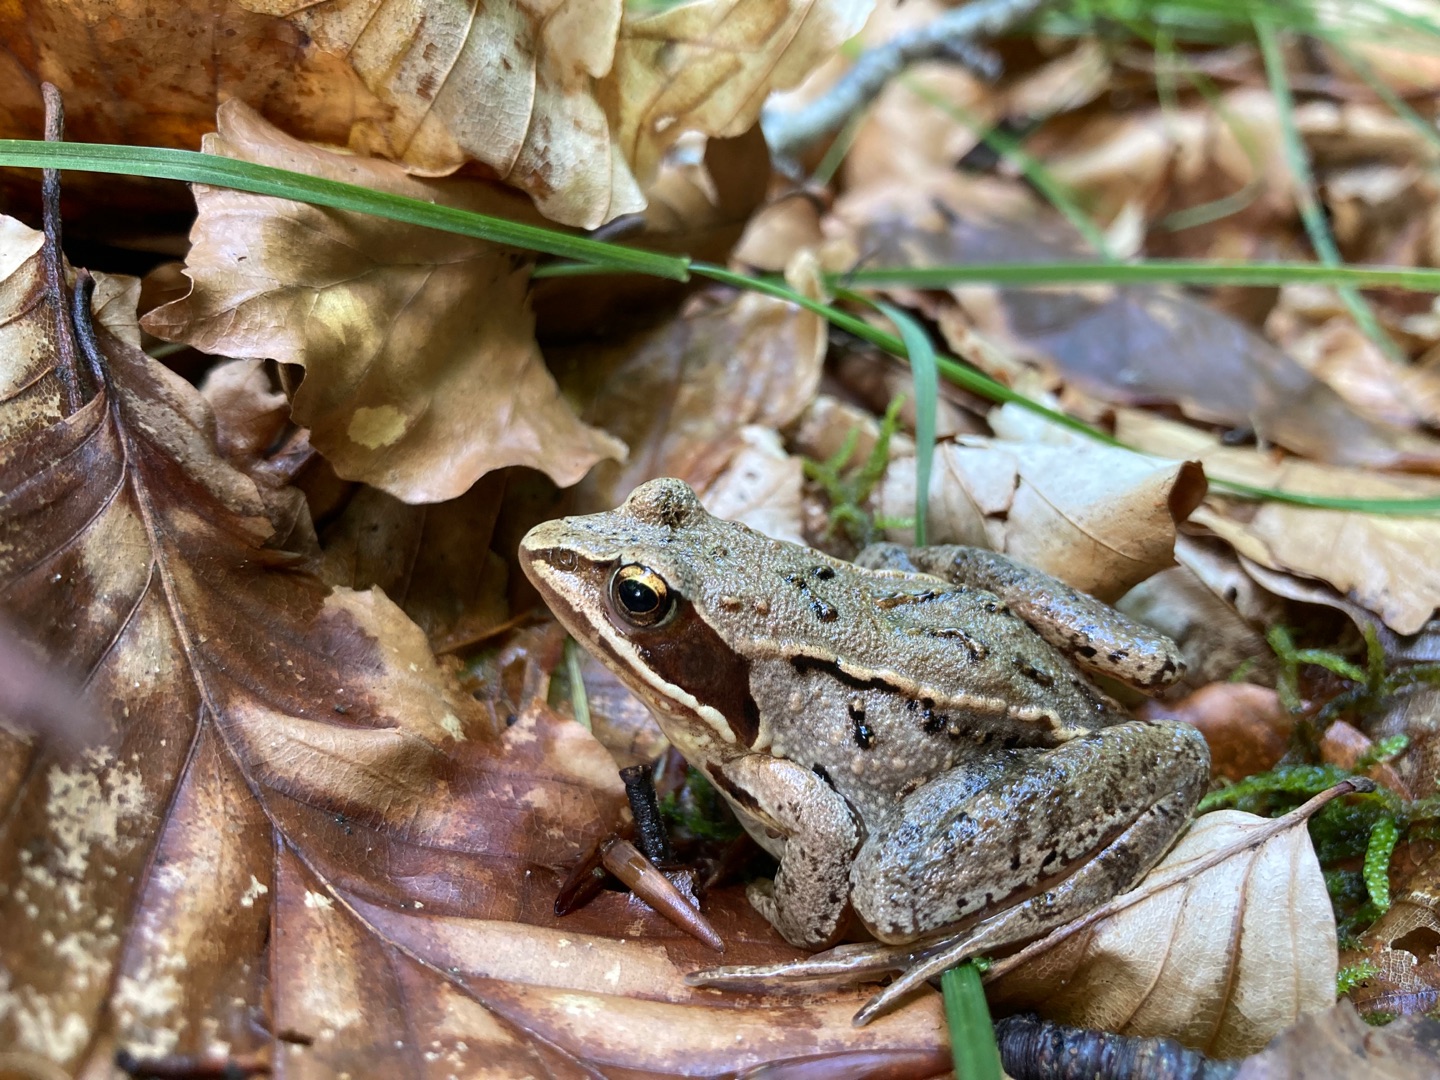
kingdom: Animalia
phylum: Chordata
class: Amphibia
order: Anura
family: Ranidae
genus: Rana
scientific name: Rana arvalis
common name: Spidssnudet frø
